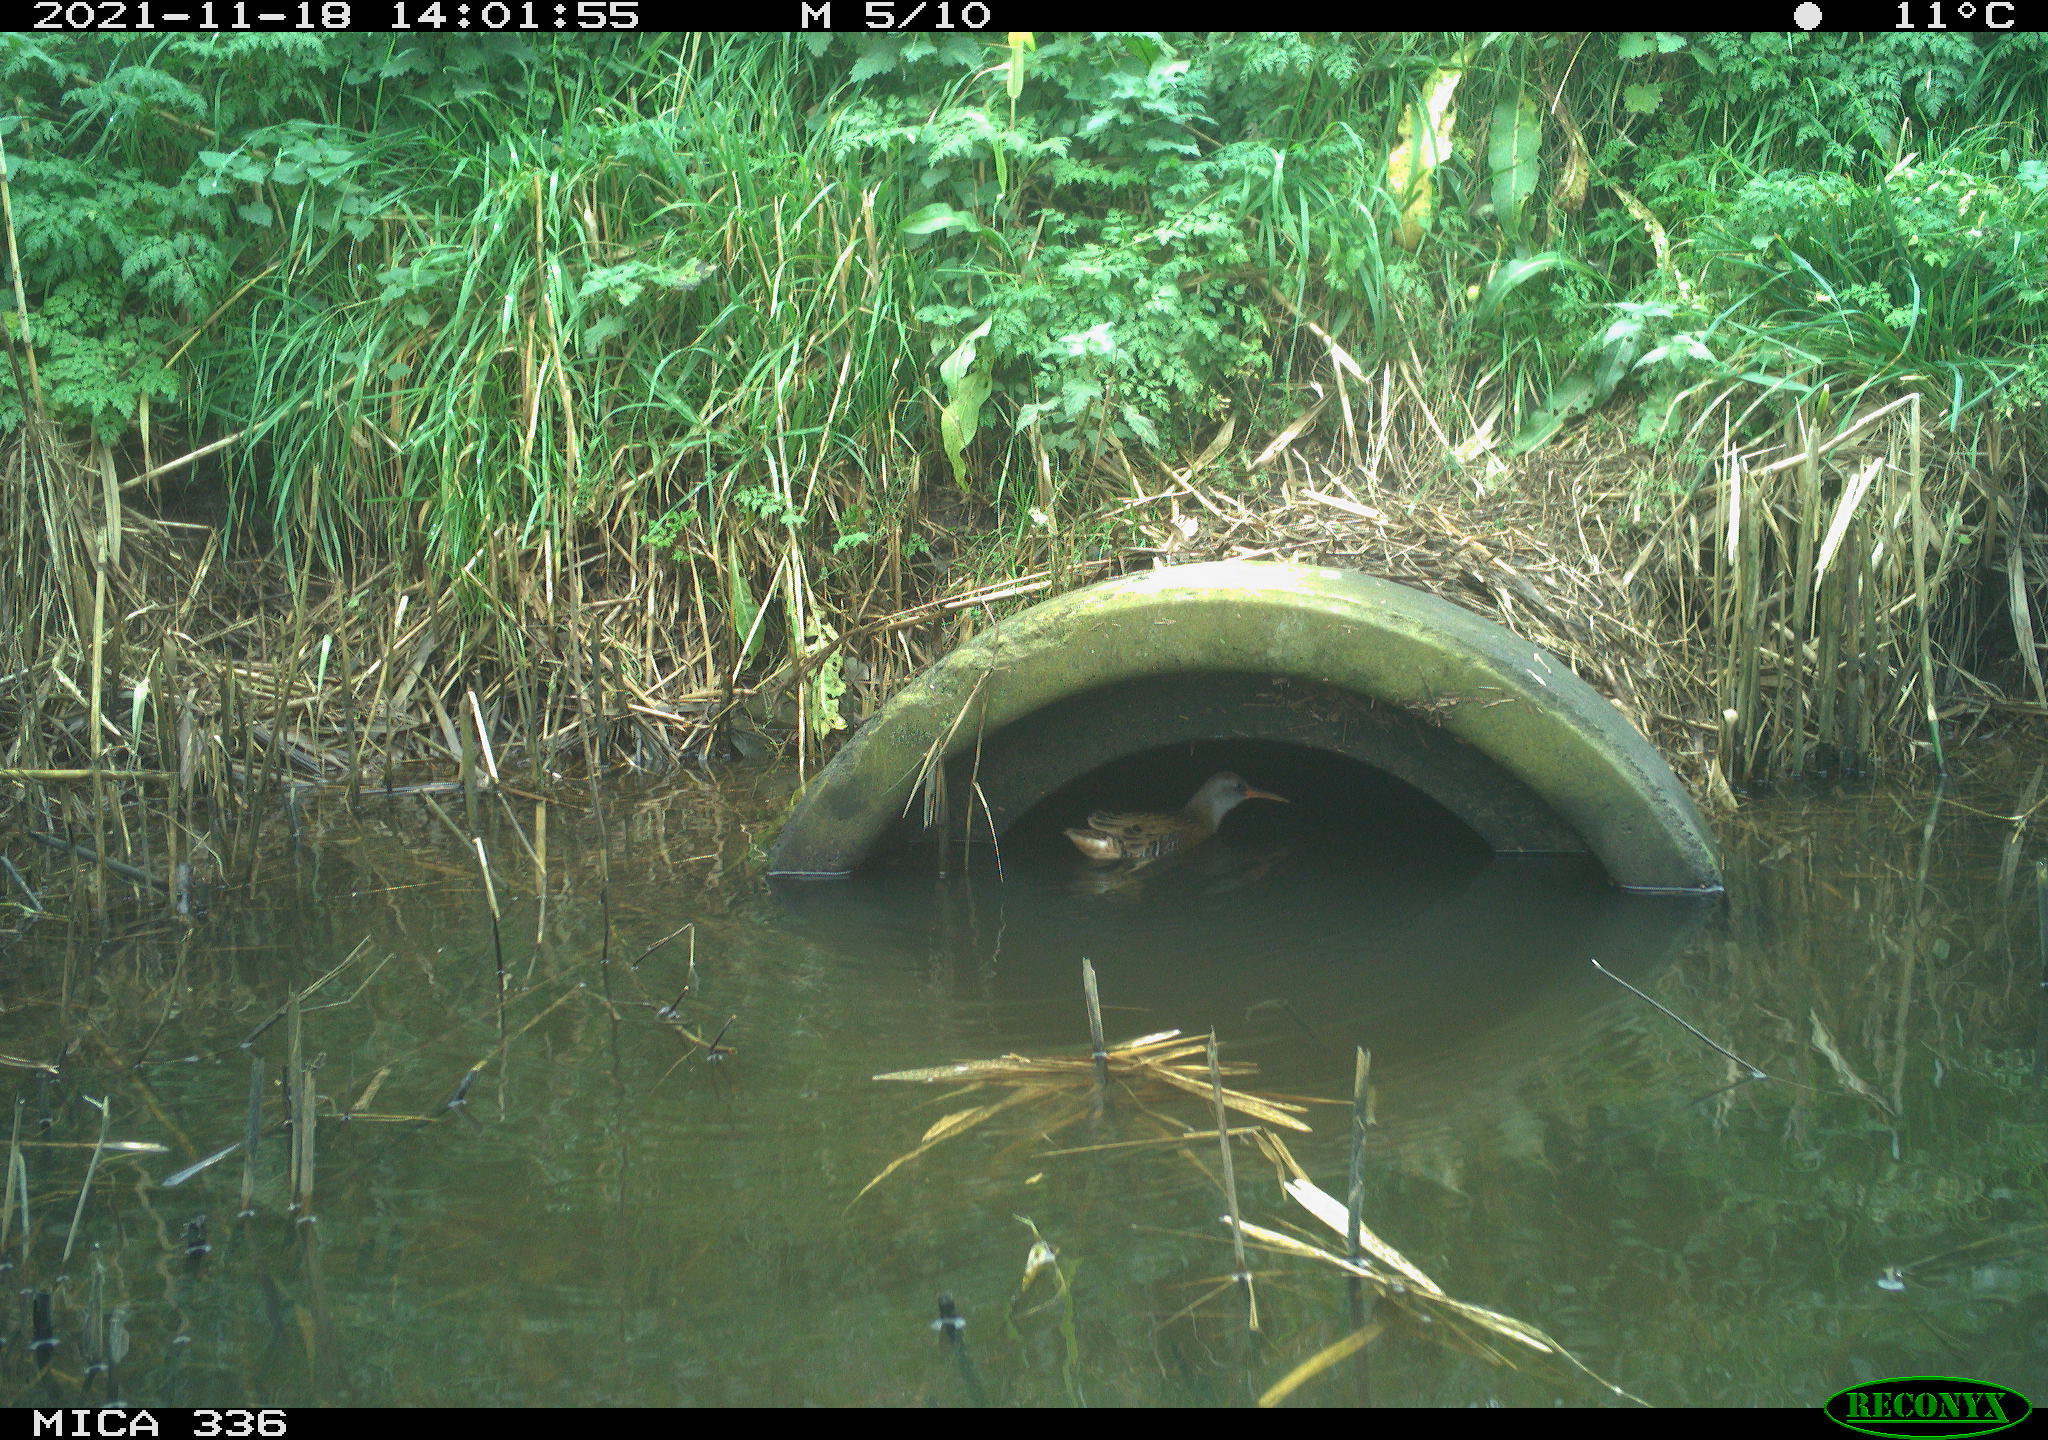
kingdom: Animalia
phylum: Chordata
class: Aves
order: Gruiformes
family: Rallidae
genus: Gallinula
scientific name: Gallinula chloropus
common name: Common moorhen
